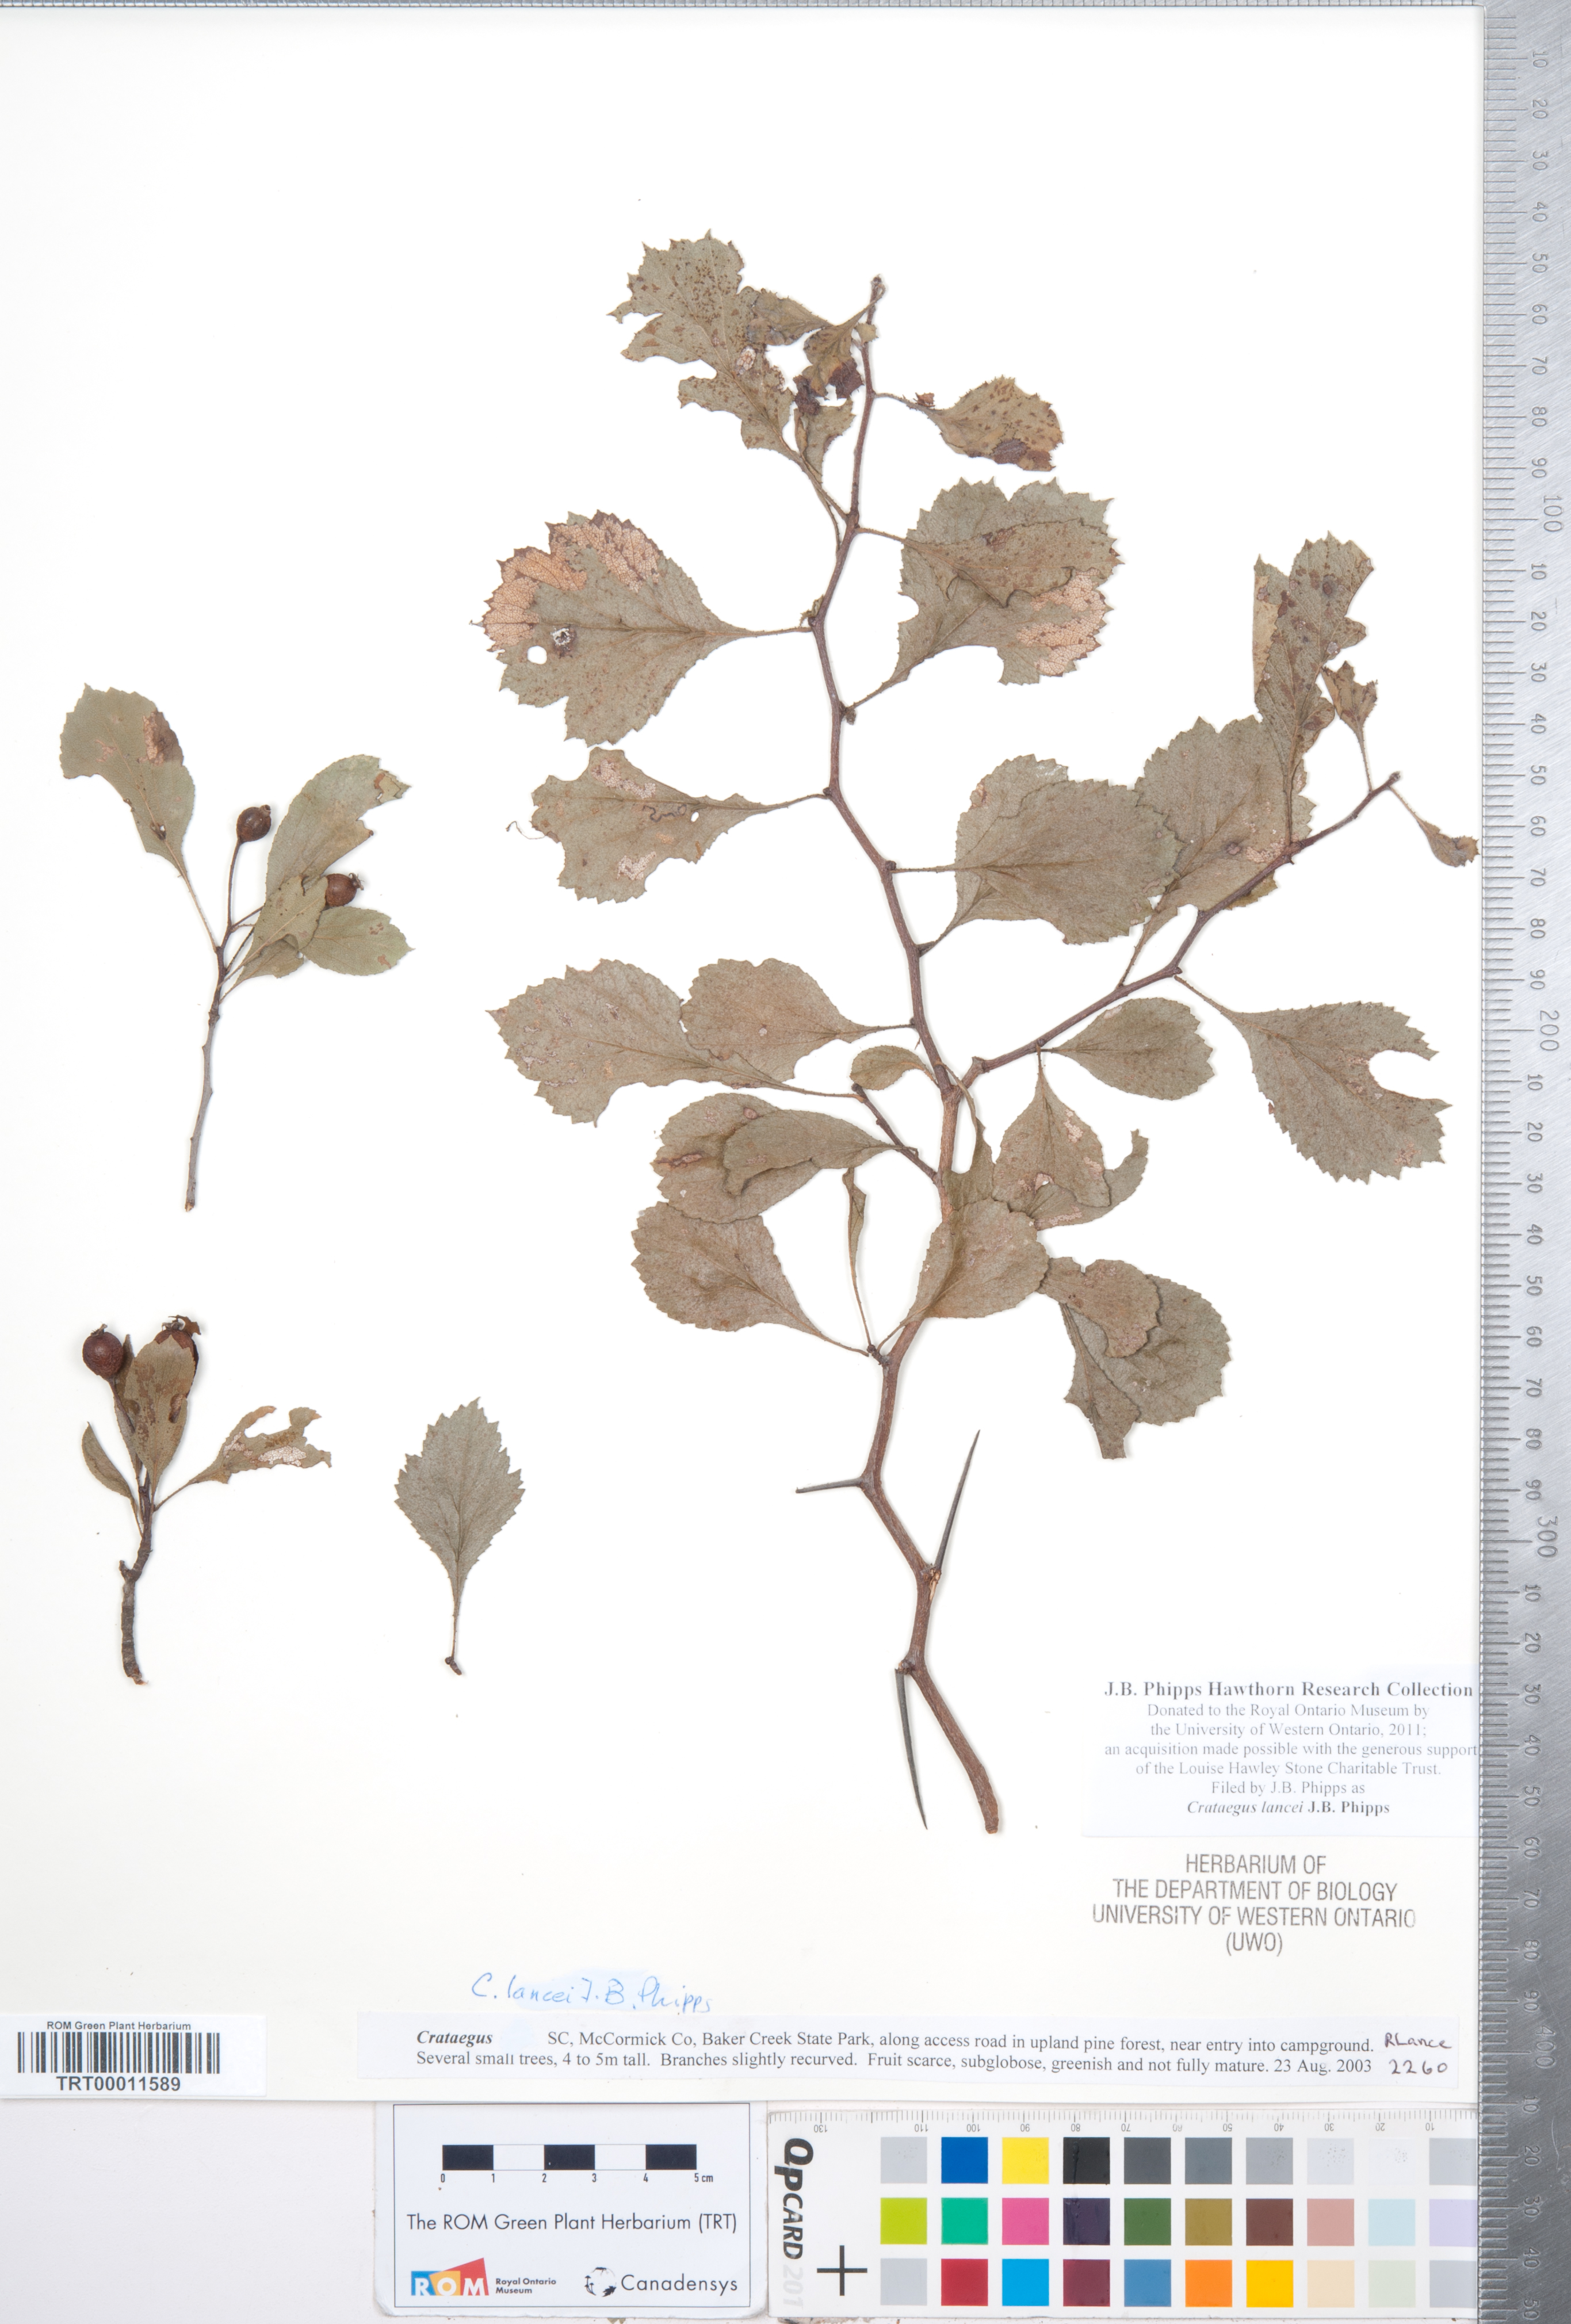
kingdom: Plantae
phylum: Tracheophyta
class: Magnoliopsida
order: Rosales
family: Rosaceae
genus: Crataegus
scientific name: Crataegus senta
